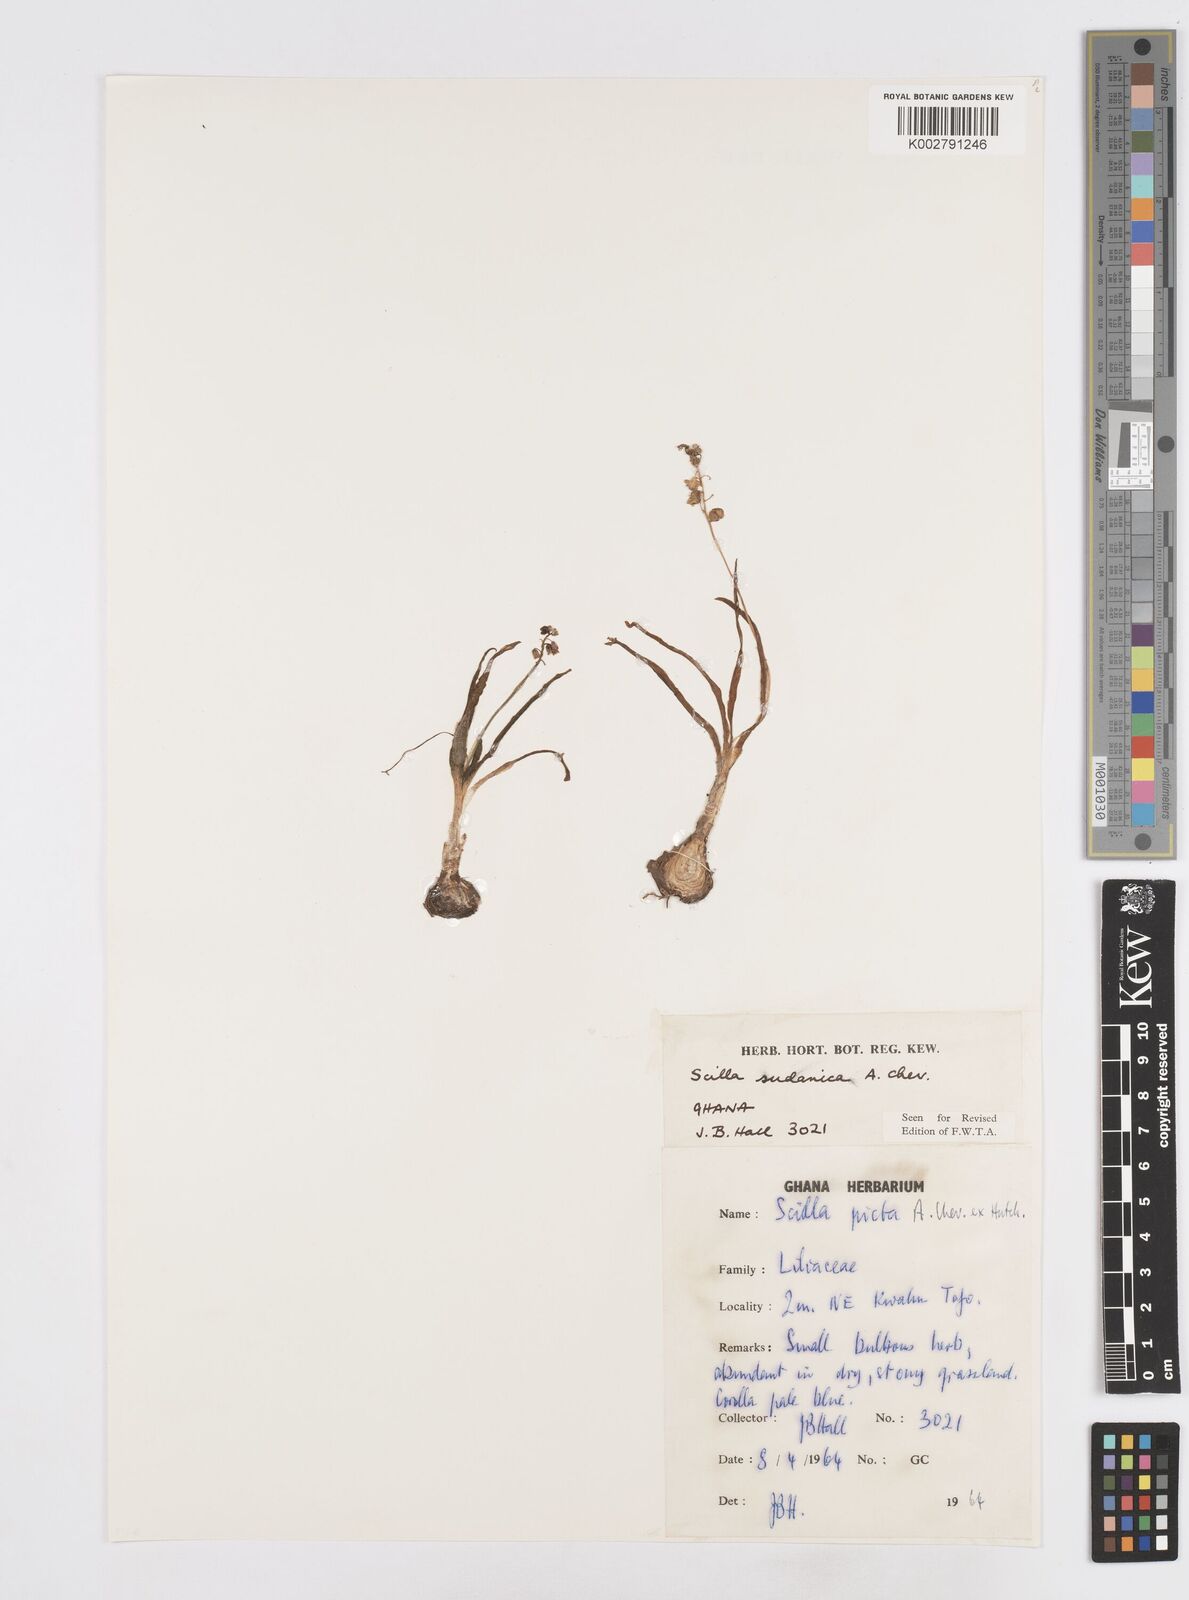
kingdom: Plantae
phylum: Tracheophyta
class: Liliopsida
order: Asparagales
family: Asparagaceae
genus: Ledebouria
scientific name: Ledebouria sudanica
